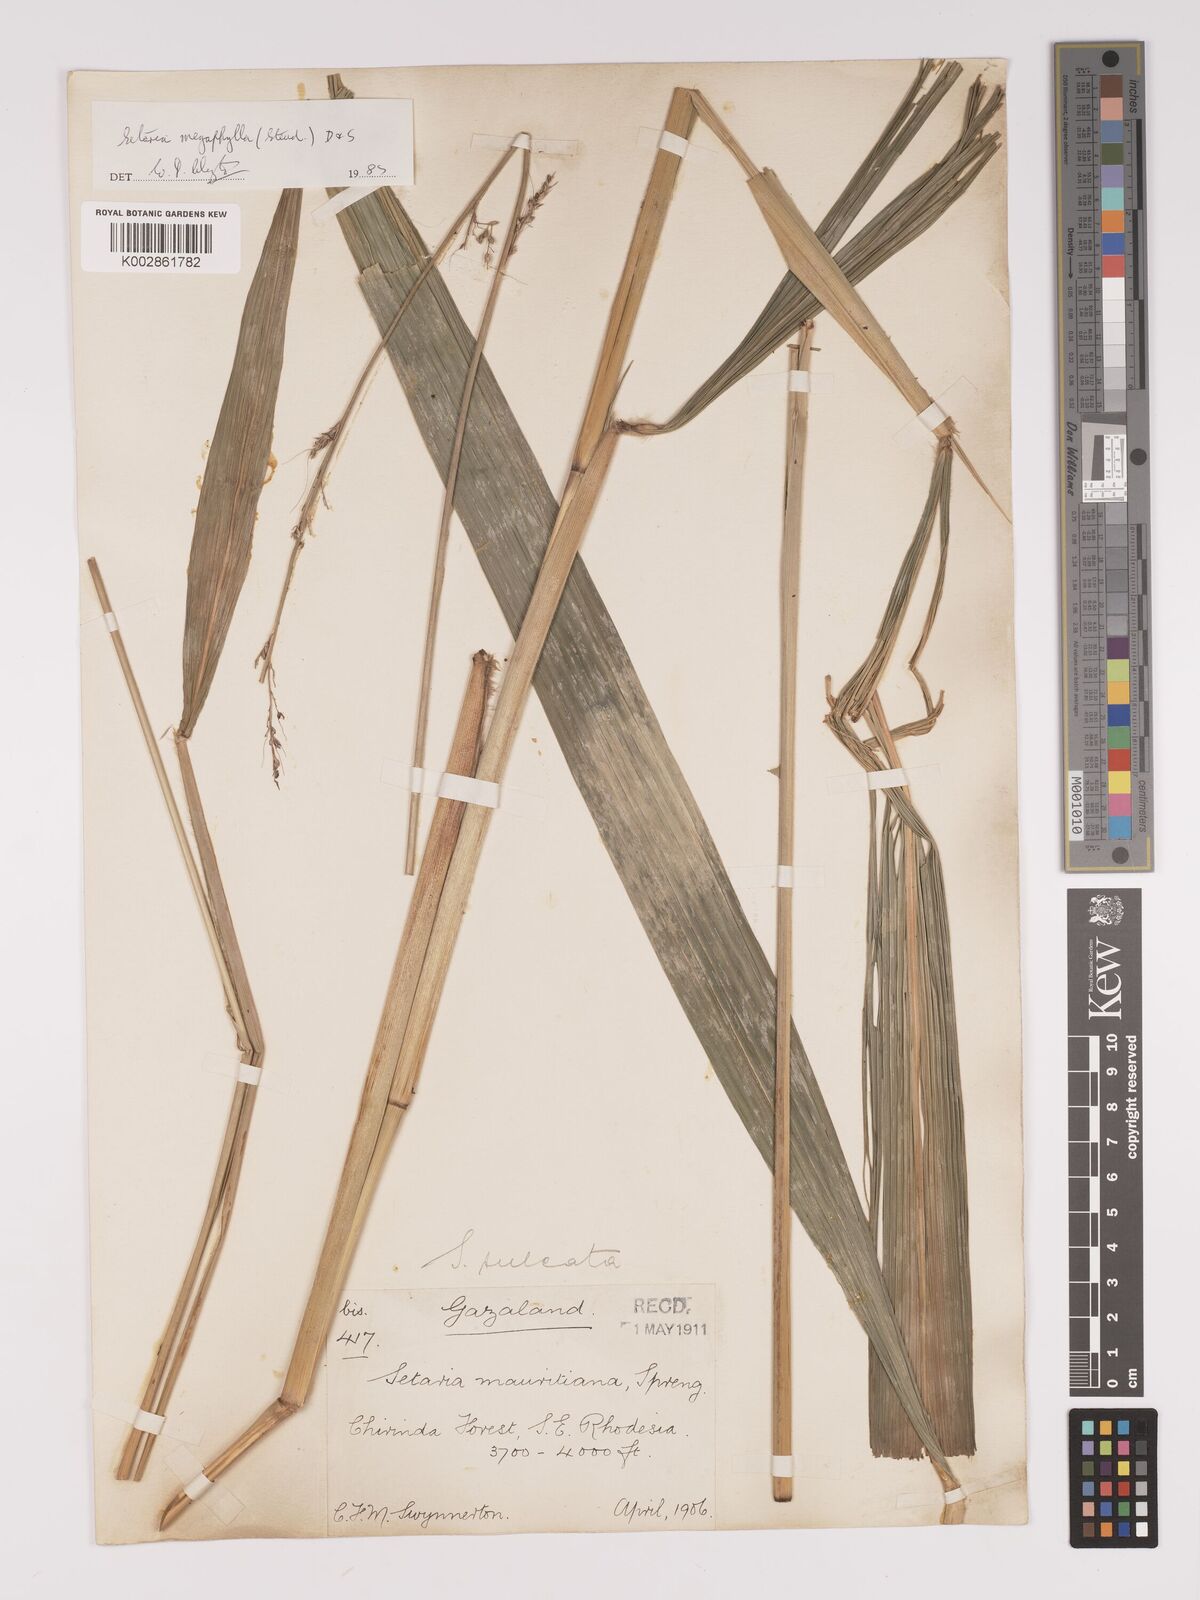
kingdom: Plantae
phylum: Tracheophyta
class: Liliopsida
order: Poales
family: Poaceae
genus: Setaria
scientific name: Setaria megaphylla
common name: Bigleaf bristlegrass
